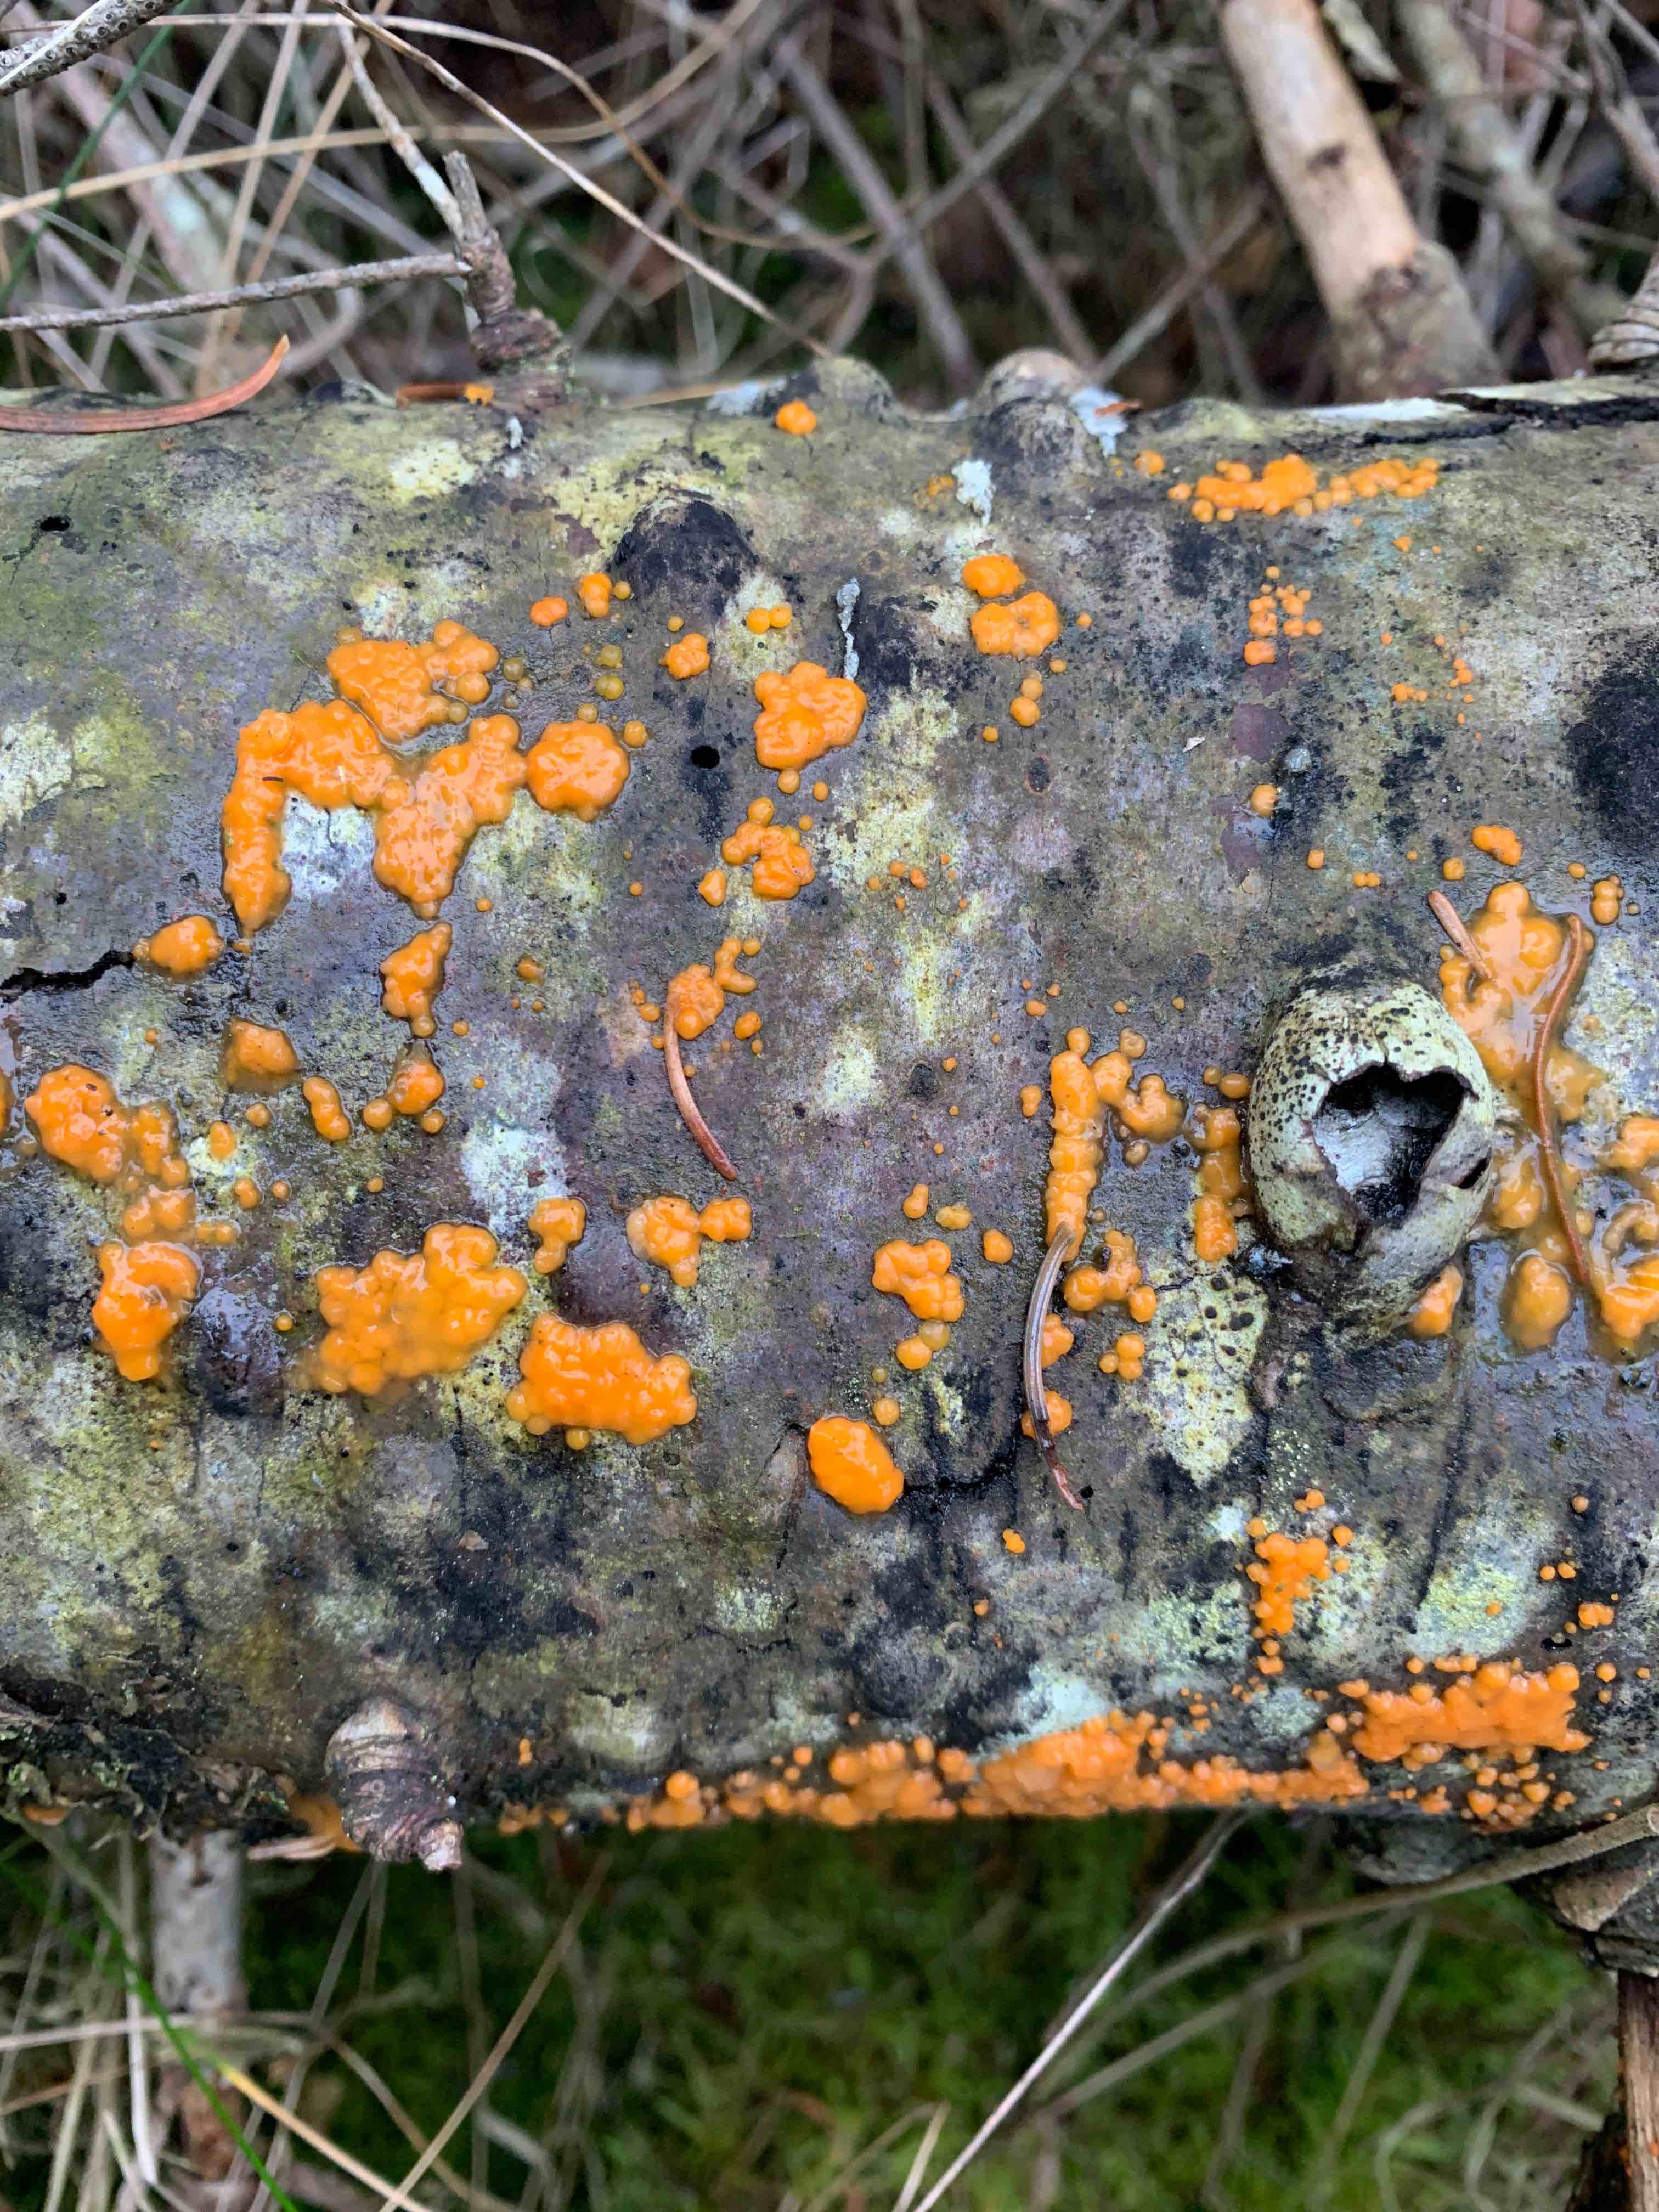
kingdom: Fungi
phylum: Basidiomycota
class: Dacrymycetes
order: Dacrymycetales
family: Dacrymycetaceae
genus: Dacrymyces
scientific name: Dacrymyces stillatus
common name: almindelig tåresvamp
